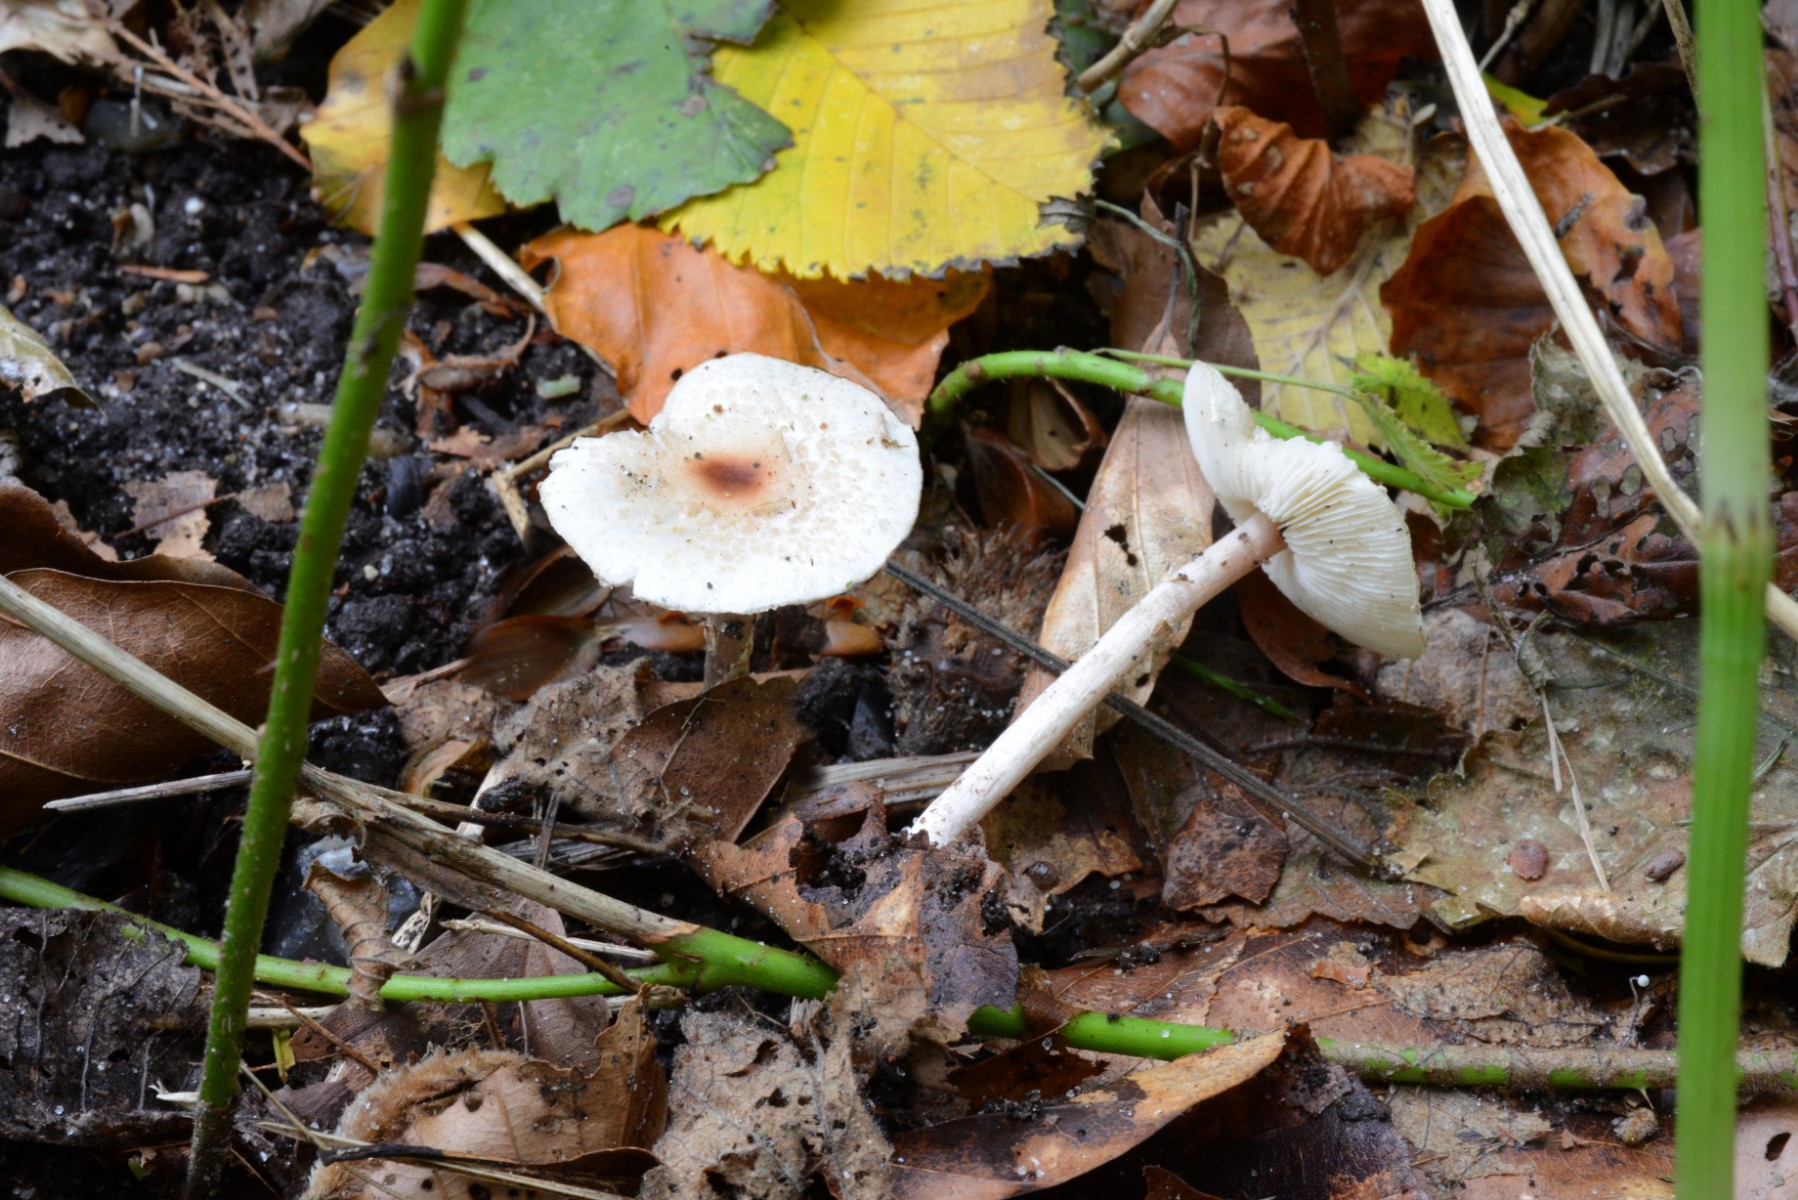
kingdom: Fungi
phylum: Basidiomycota
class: Agaricomycetes
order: Agaricales
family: Agaricaceae
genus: Lepiota
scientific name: Lepiota cristata
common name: stinkende parasolhat
